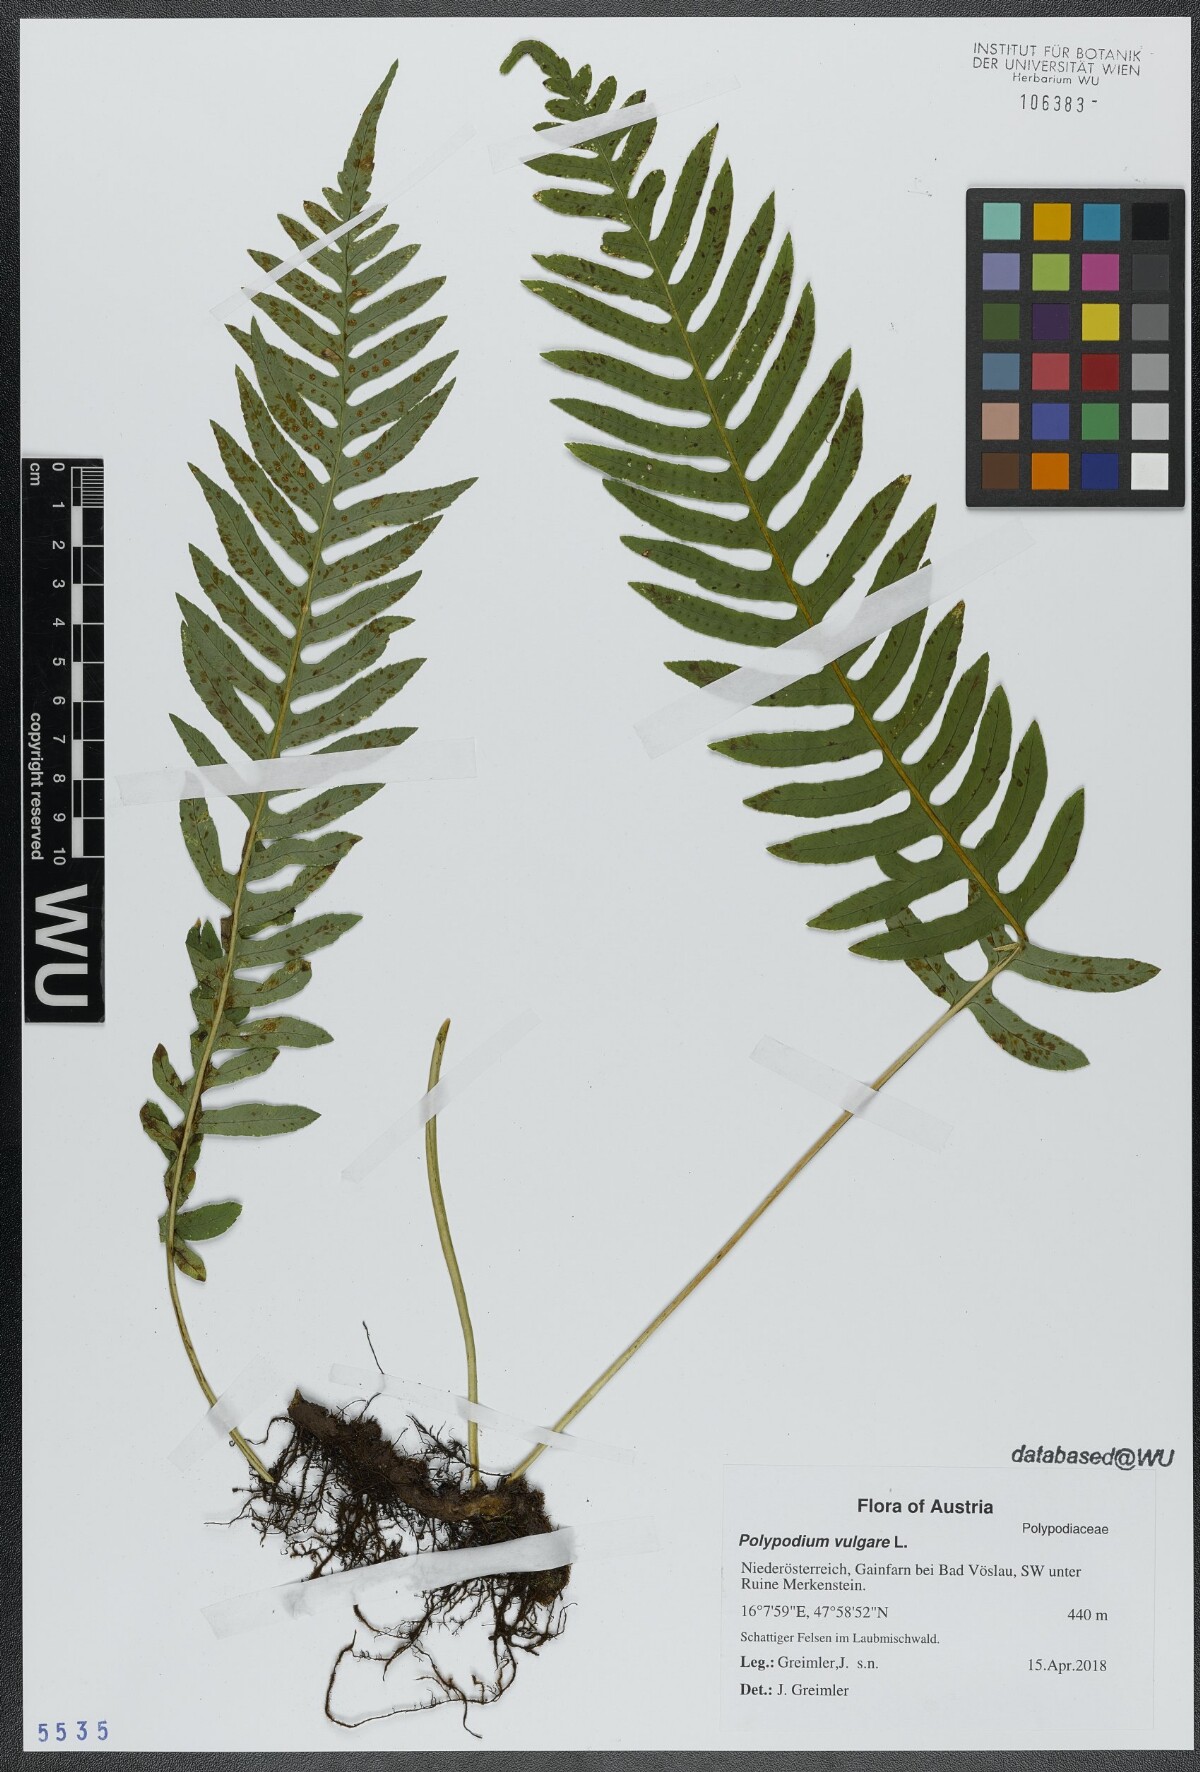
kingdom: Plantae
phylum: Tracheophyta
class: Polypodiopsida
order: Polypodiales
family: Polypodiaceae
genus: Polypodium
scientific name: Polypodium vulgare
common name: Common polypody
